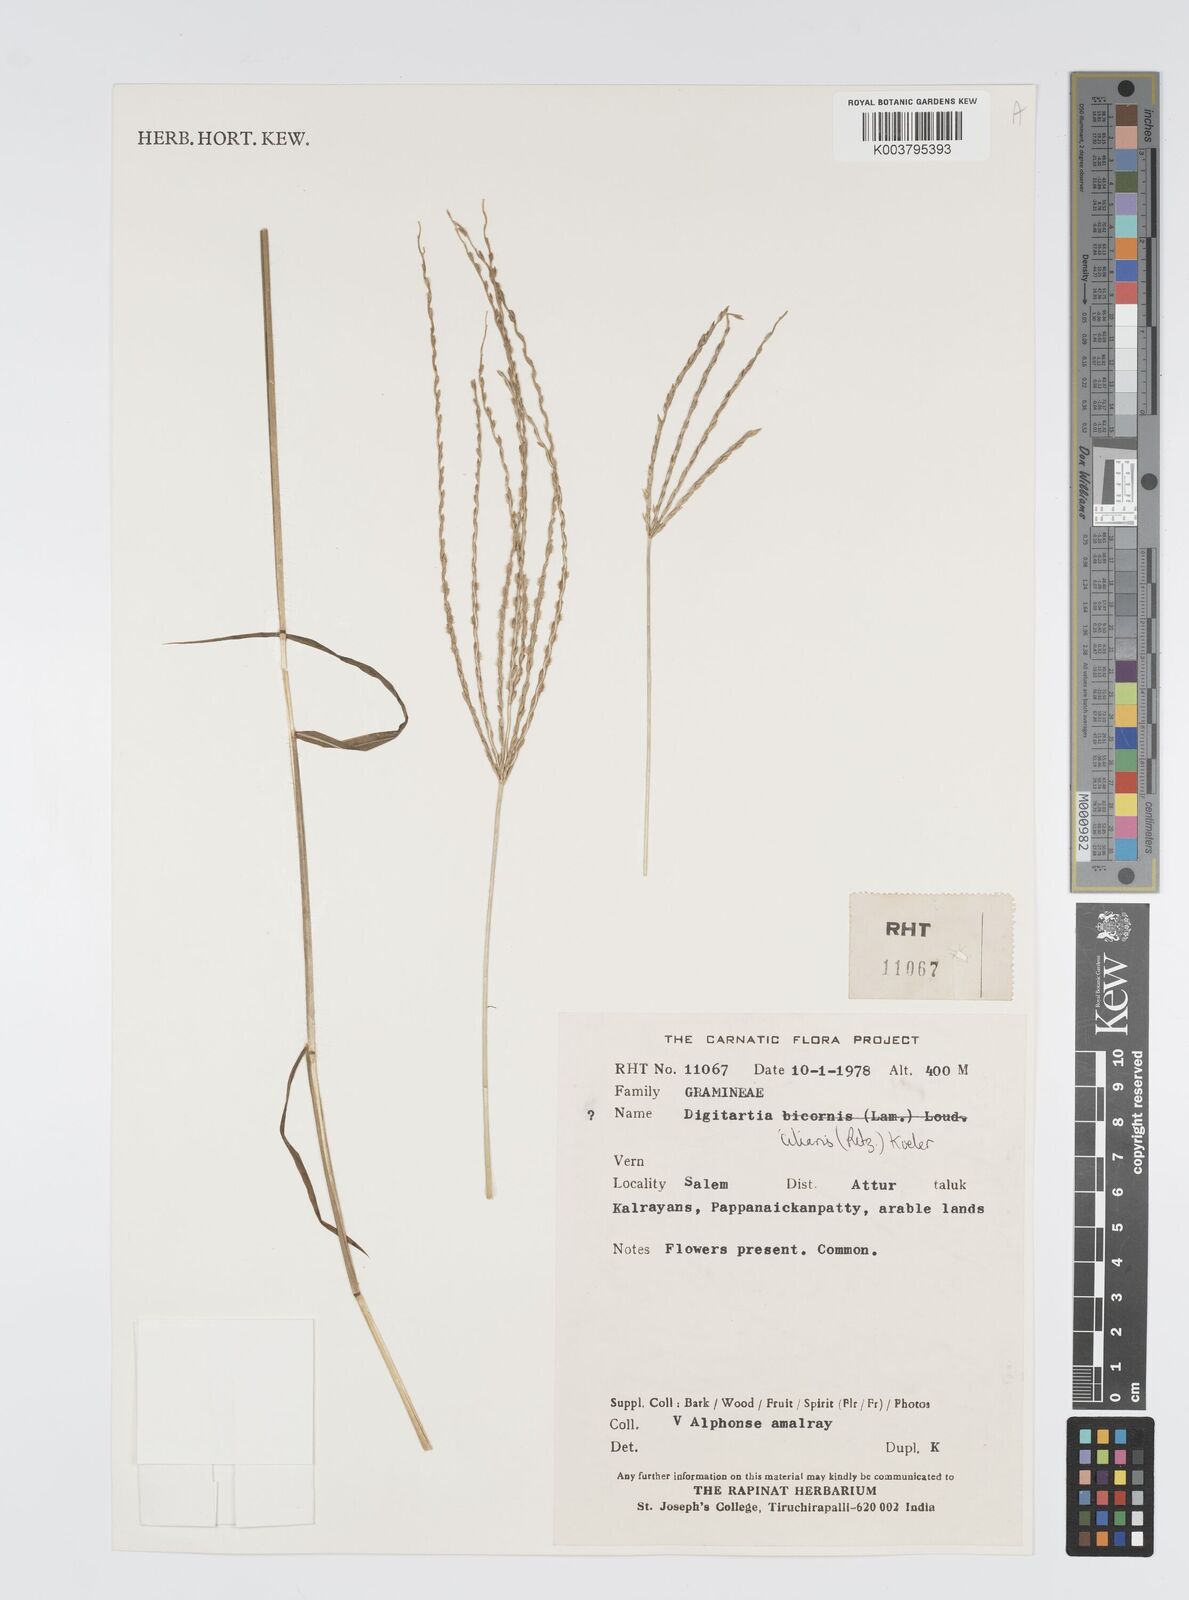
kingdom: Plantae
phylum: Tracheophyta
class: Liliopsida
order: Poales
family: Poaceae
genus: Digitaria
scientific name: Digitaria ciliaris
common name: Tropical finger-grass
